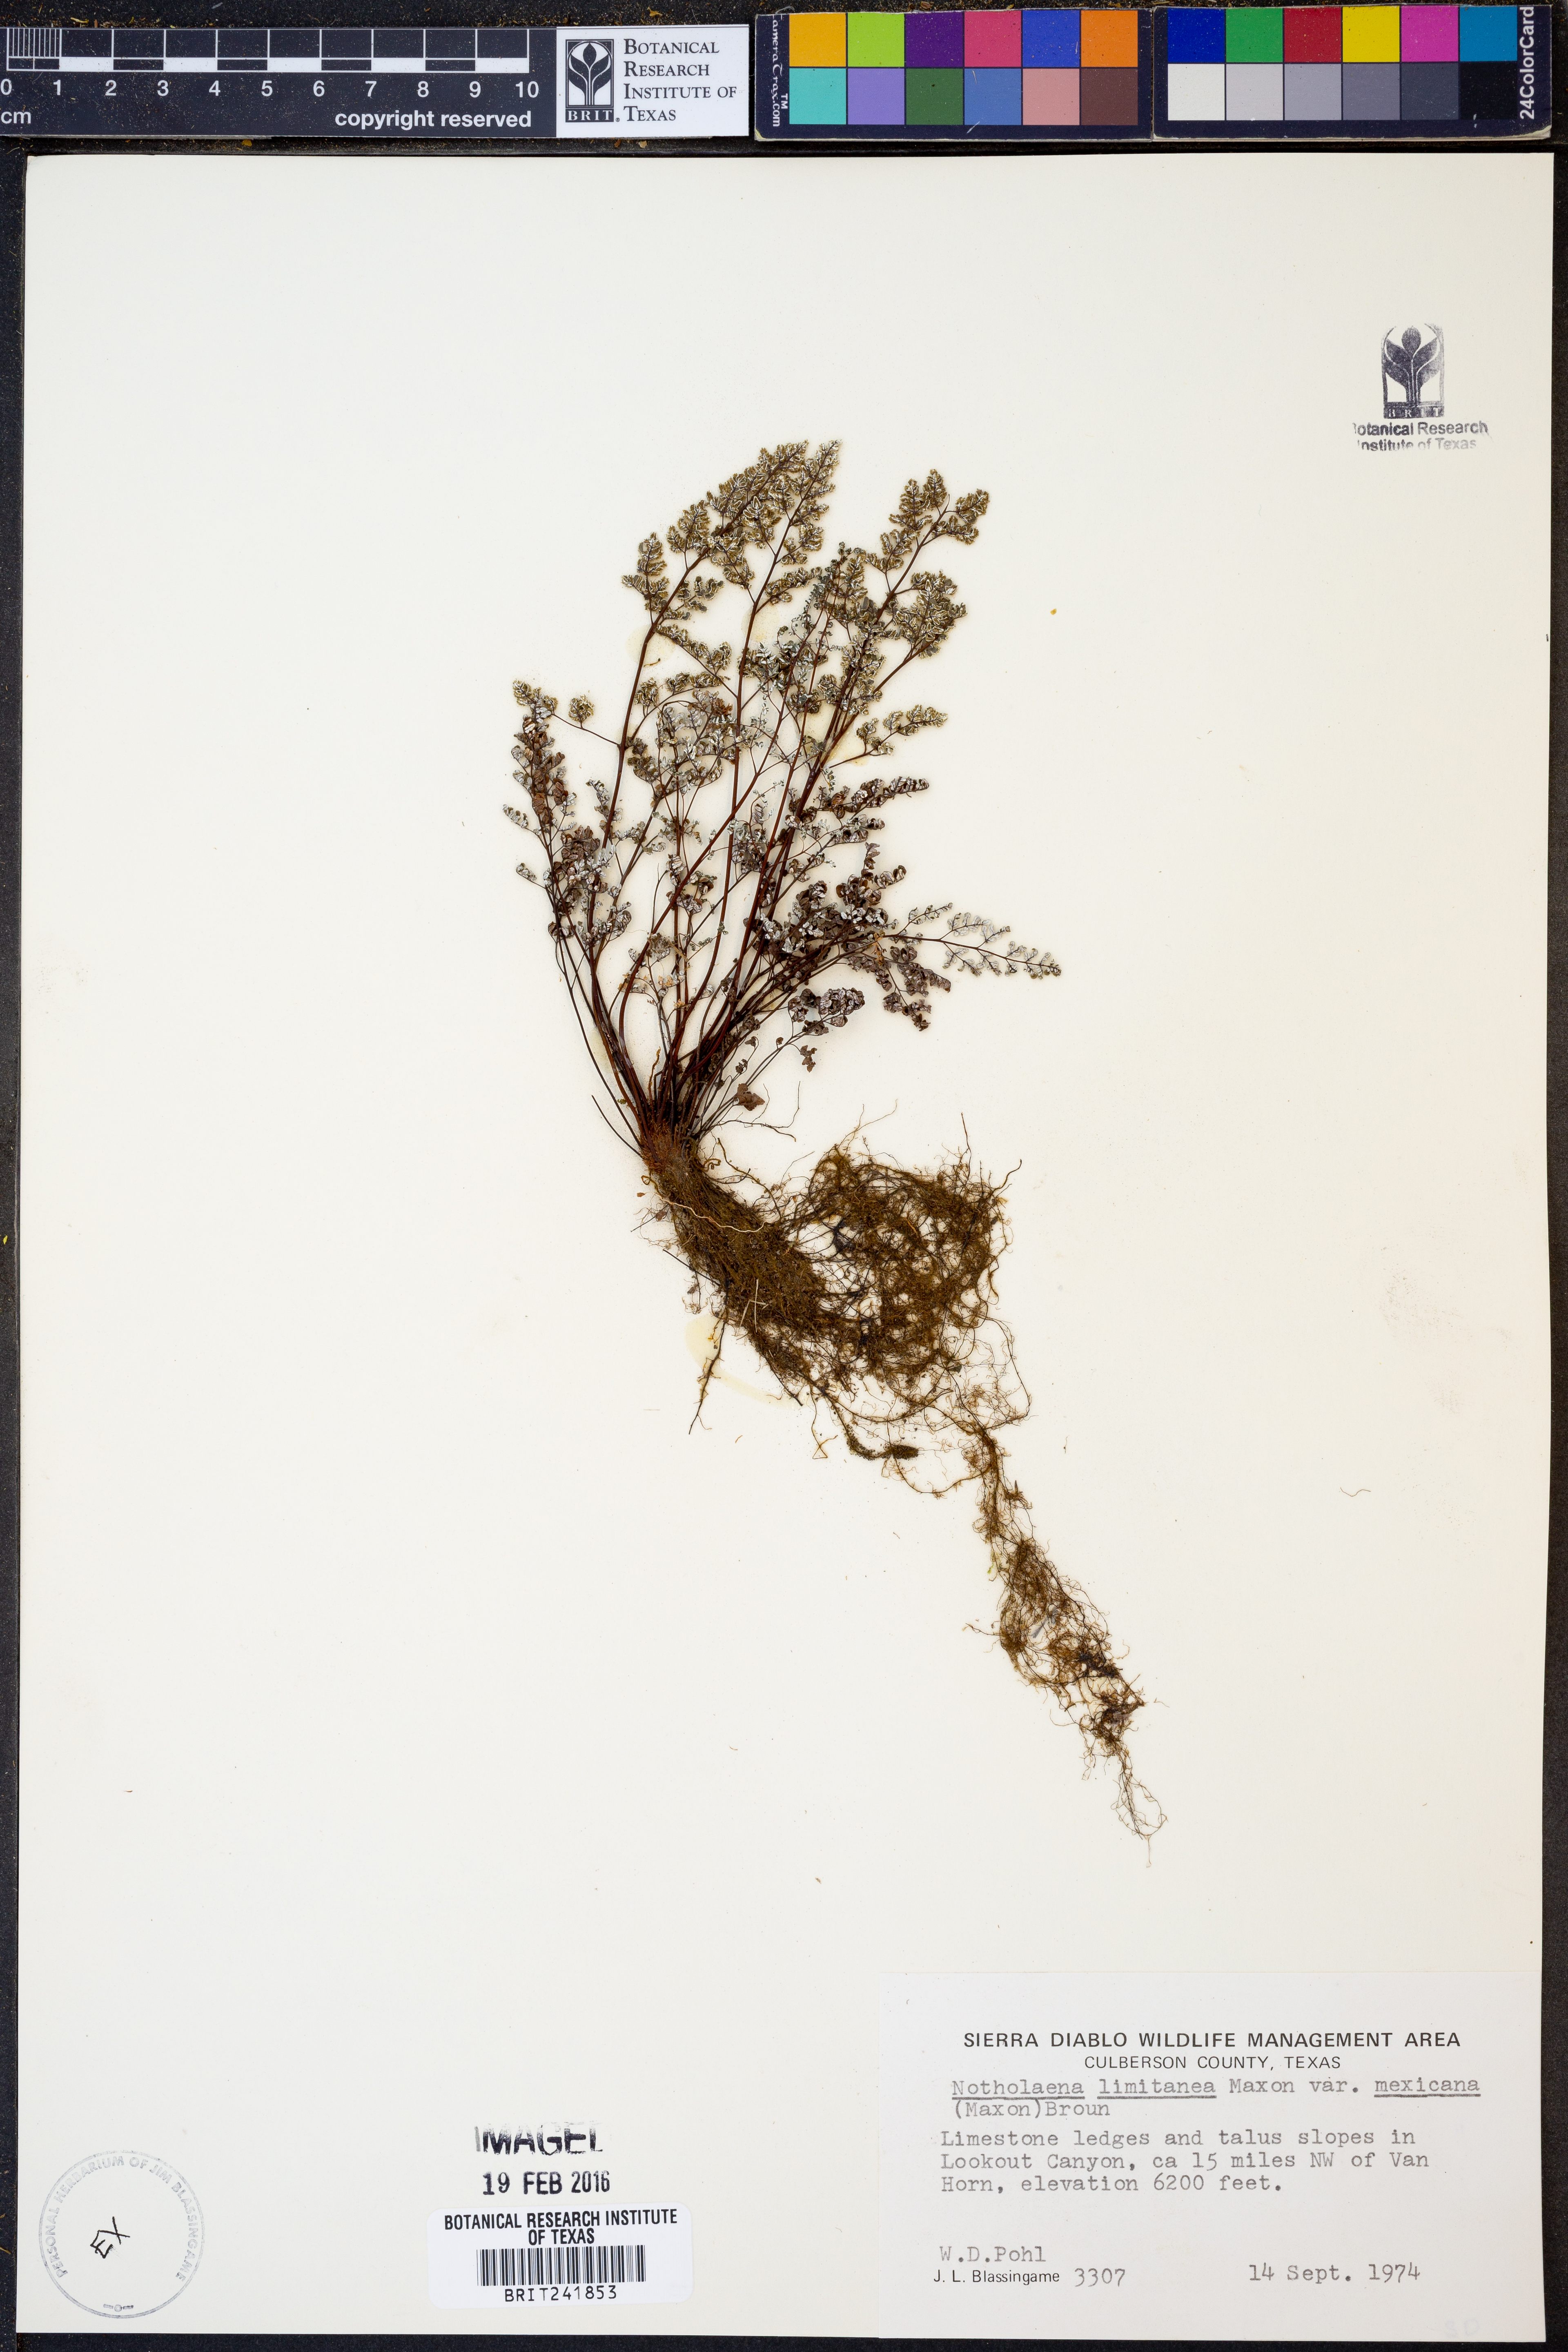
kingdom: Plantae
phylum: Tracheophyta
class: Polypodiopsida
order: Polypodiales
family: Pteridaceae
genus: Argyrochosma
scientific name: Argyrochosma limitanea
